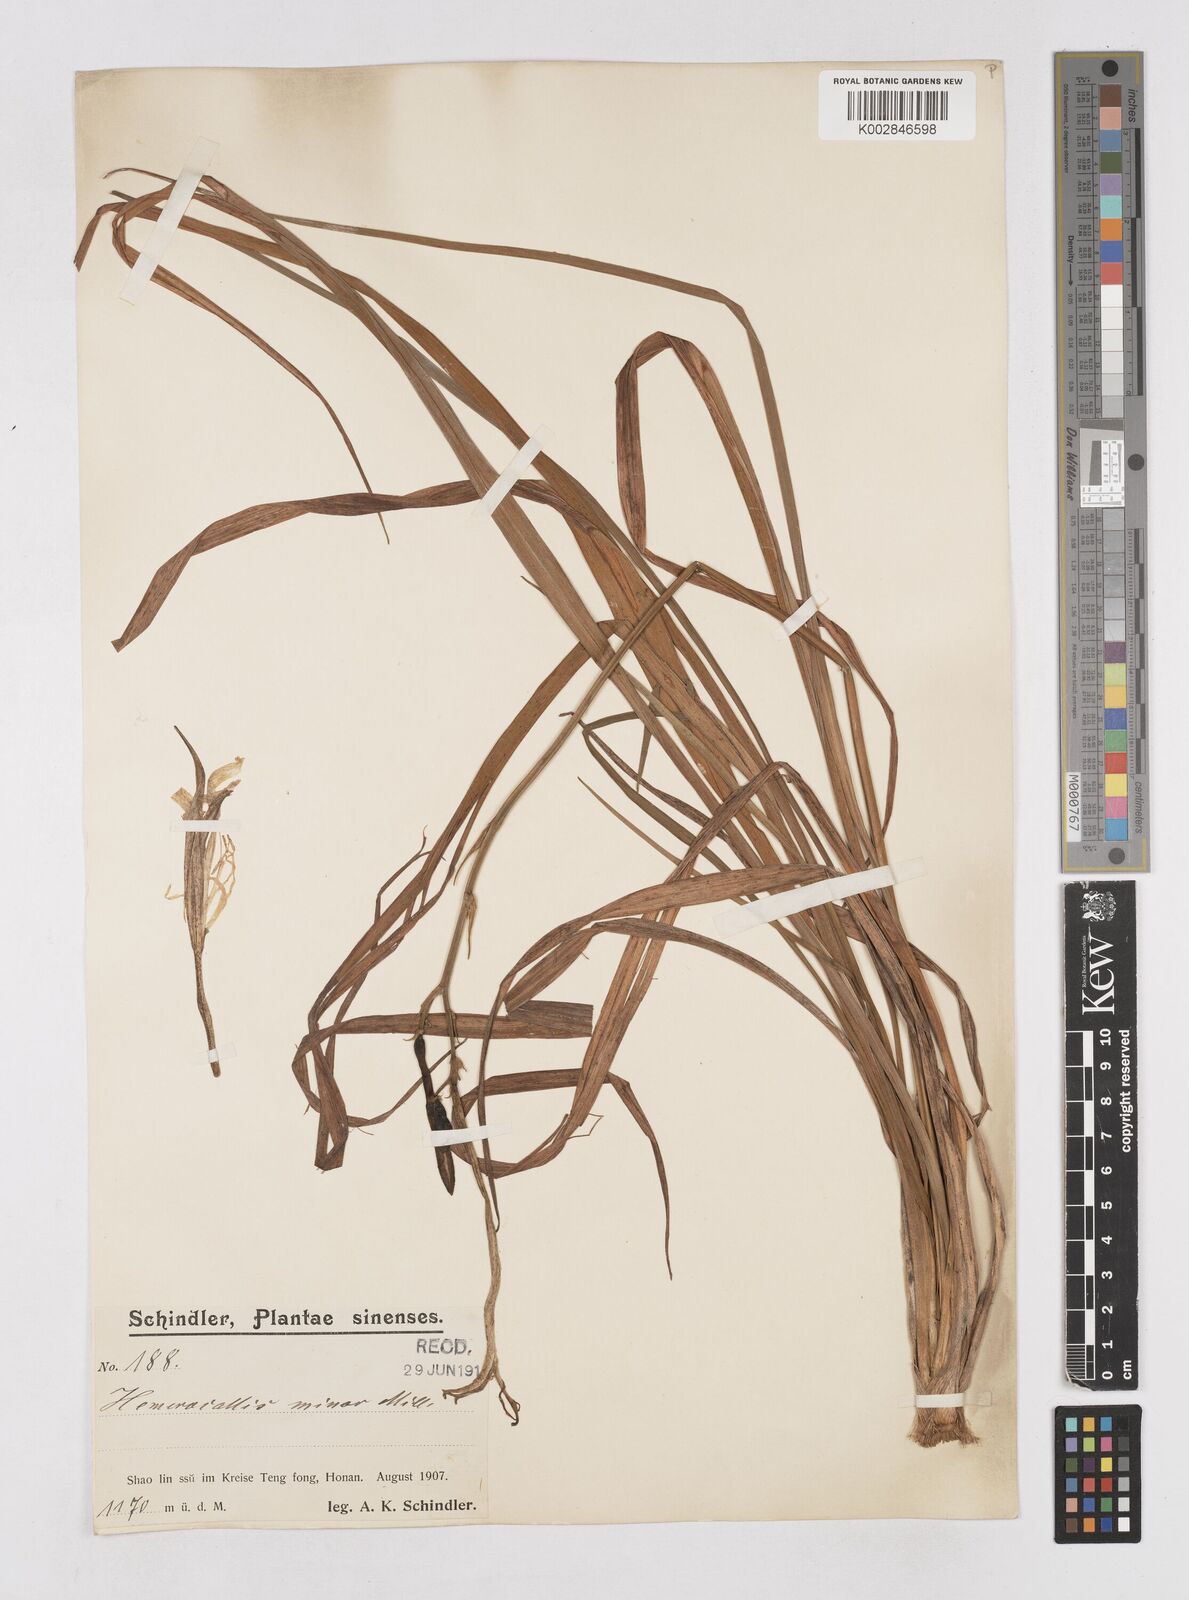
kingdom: Plantae
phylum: Tracheophyta
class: Liliopsida
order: Asparagales
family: Asphodelaceae
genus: Hemerocallis
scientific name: Hemerocallis minor
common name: Small daylily
